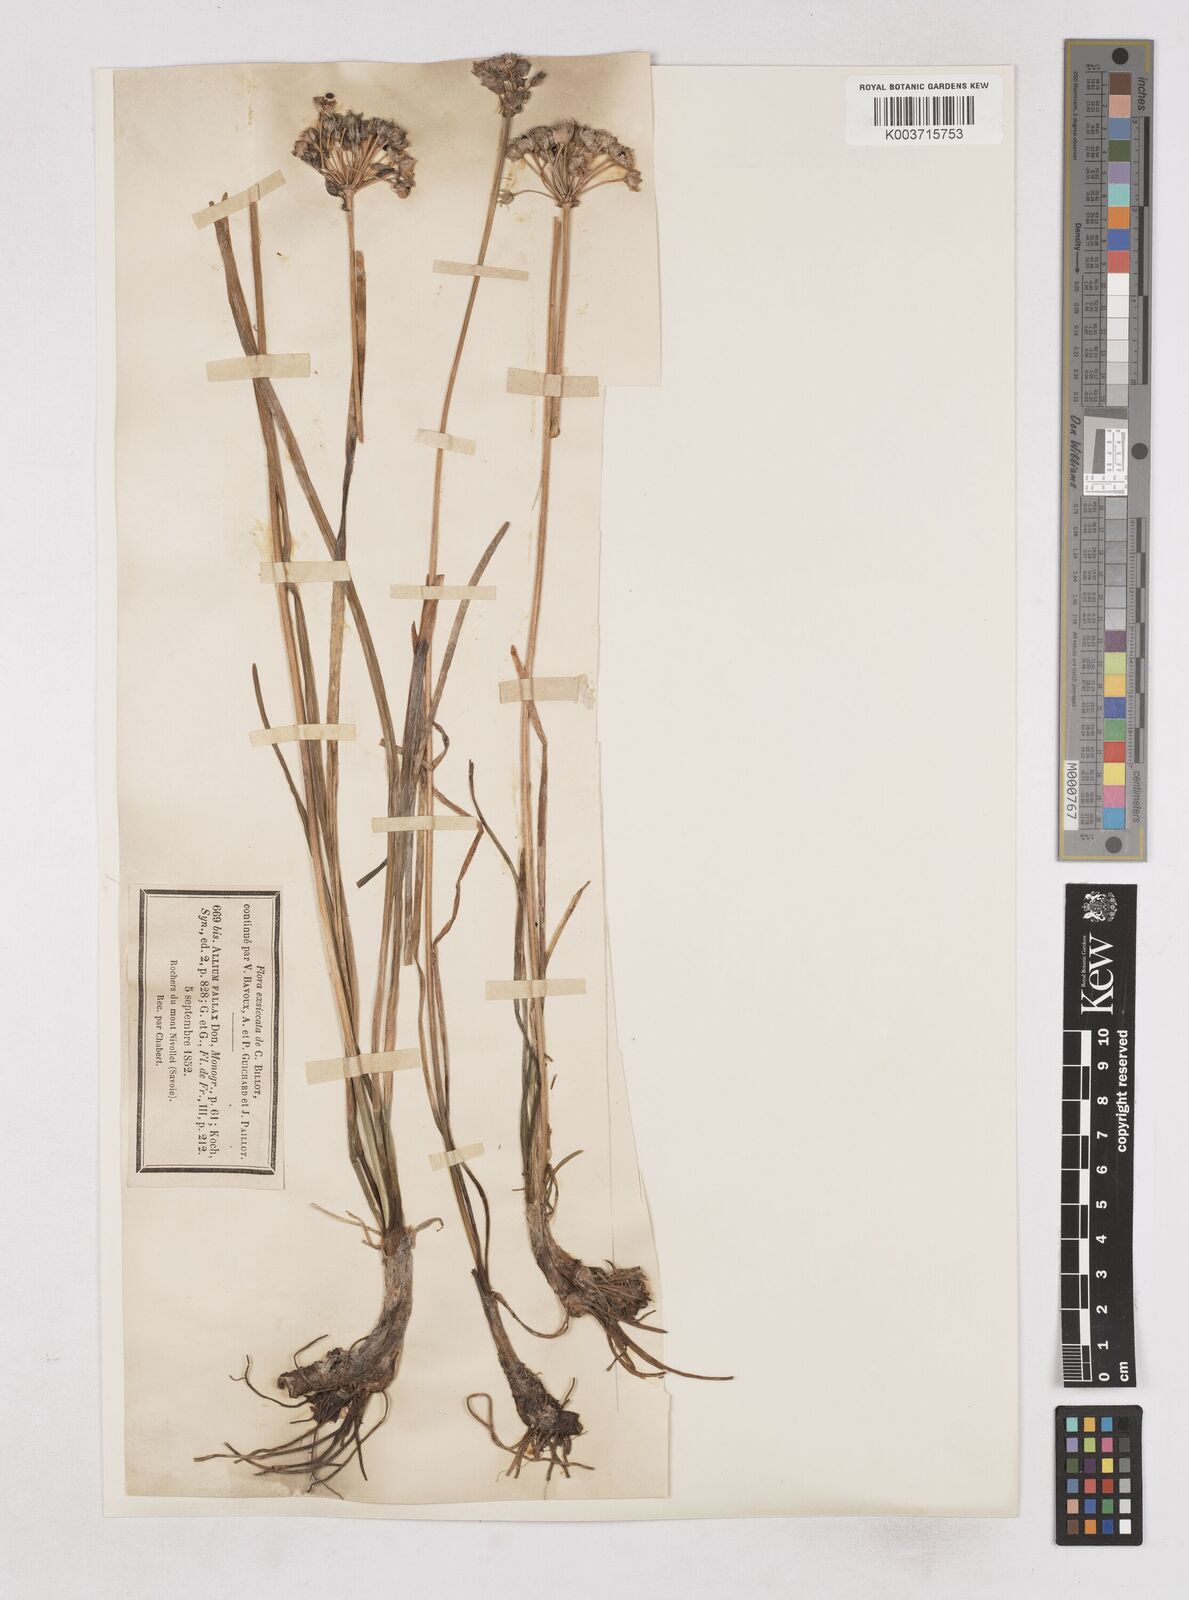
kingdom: Plantae
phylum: Tracheophyta
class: Liliopsida
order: Asparagales
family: Amaryllidaceae
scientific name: Amaryllidaceae
